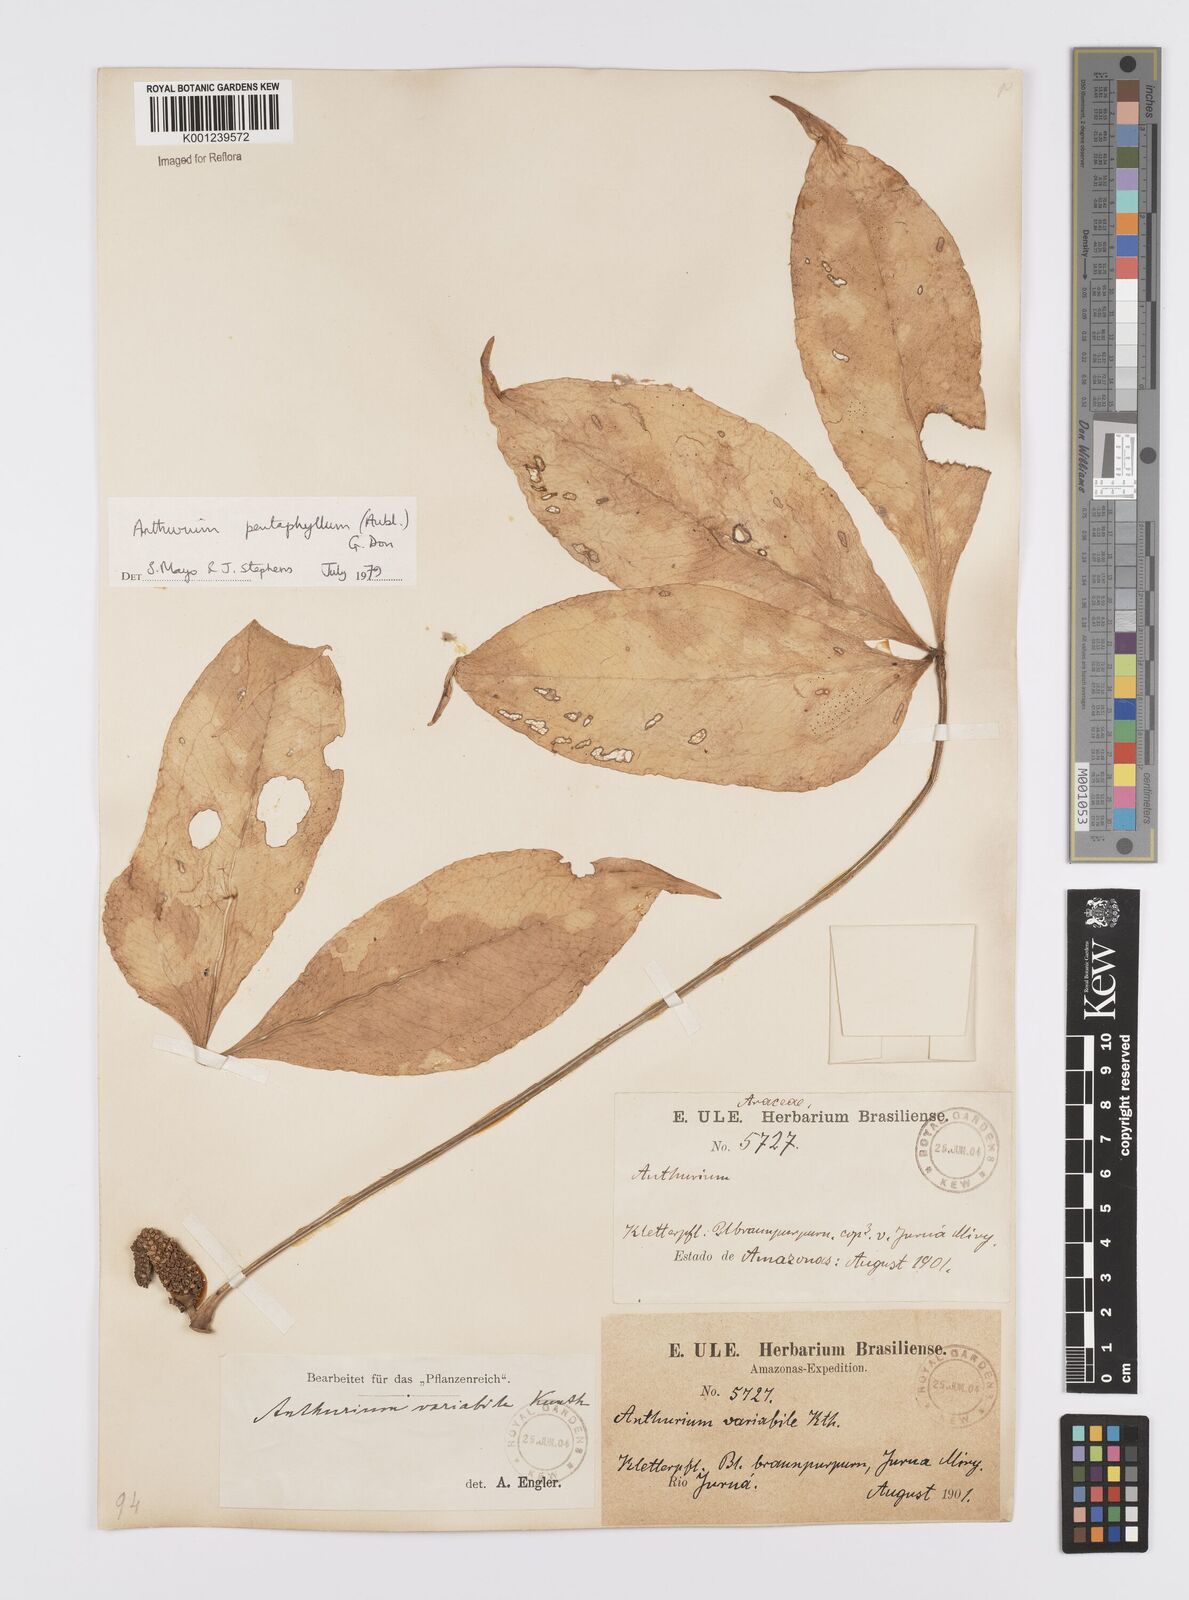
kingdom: Plantae
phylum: Tracheophyta
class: Liliopsida
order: Alismatales
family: Araceae
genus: Anthurium
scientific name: Anthurium pentaphyllum
